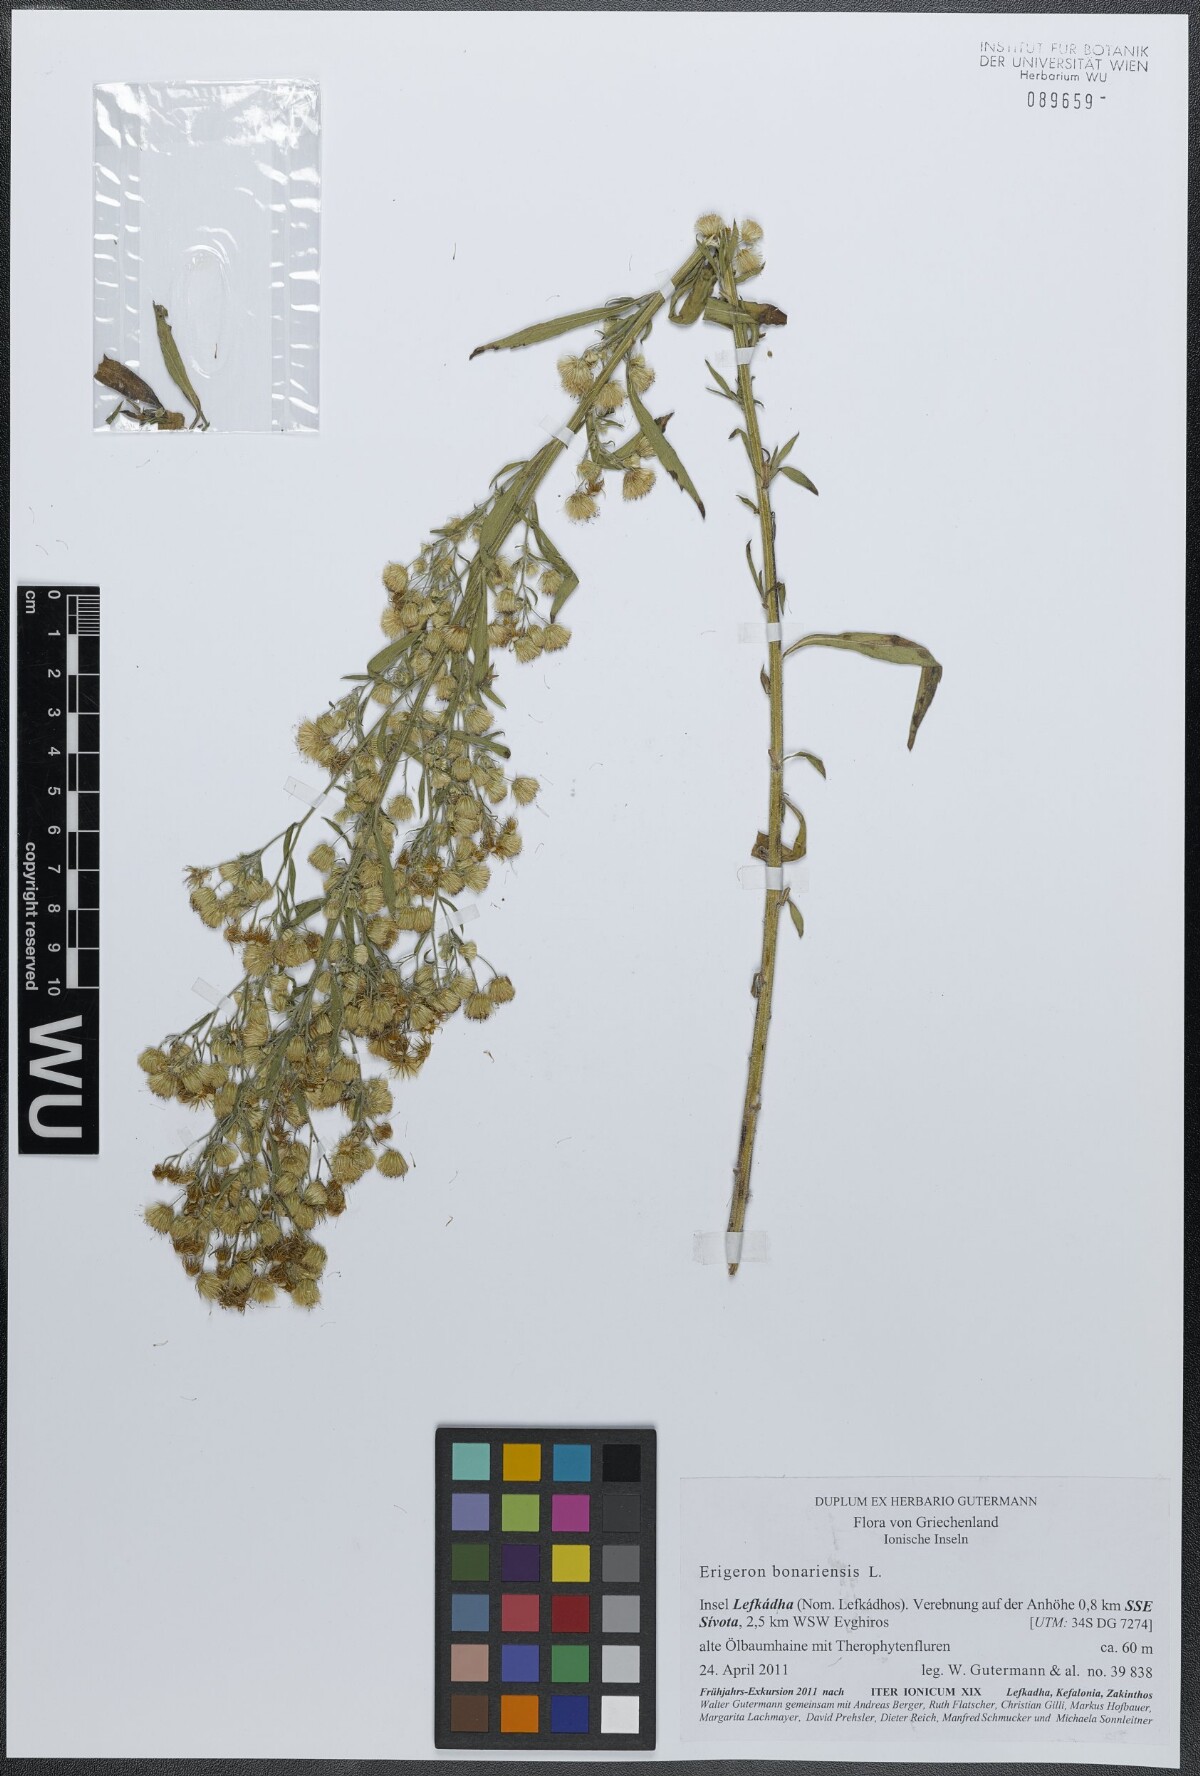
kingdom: Plantae
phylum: Tracheophyta
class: Magnoliopsida
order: Asterales
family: Asteraceae
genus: Erigeron
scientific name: Erigeron sumatrensis
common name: Daisy
